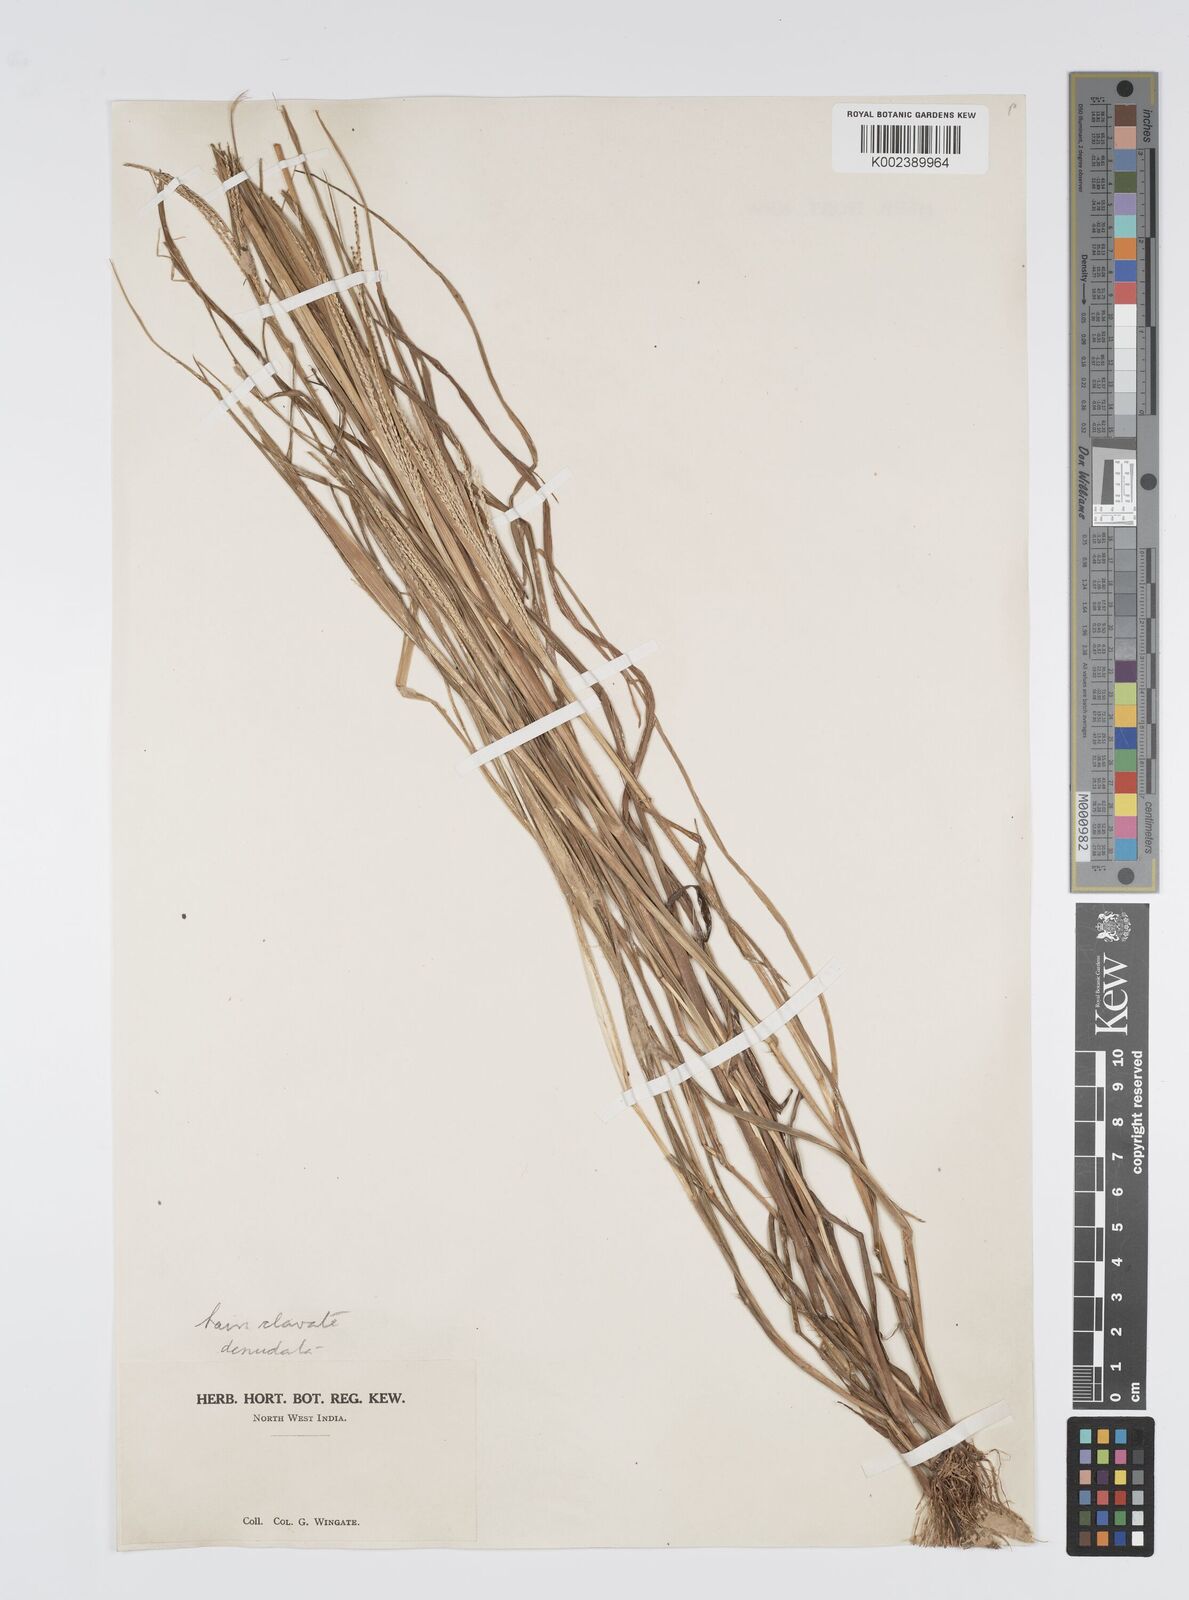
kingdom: Plantae
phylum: Tracheophyta
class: Liliopsida
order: Poales
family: Poaceae
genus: Digitaria
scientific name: Digitaria stricta
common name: Crabgrass
